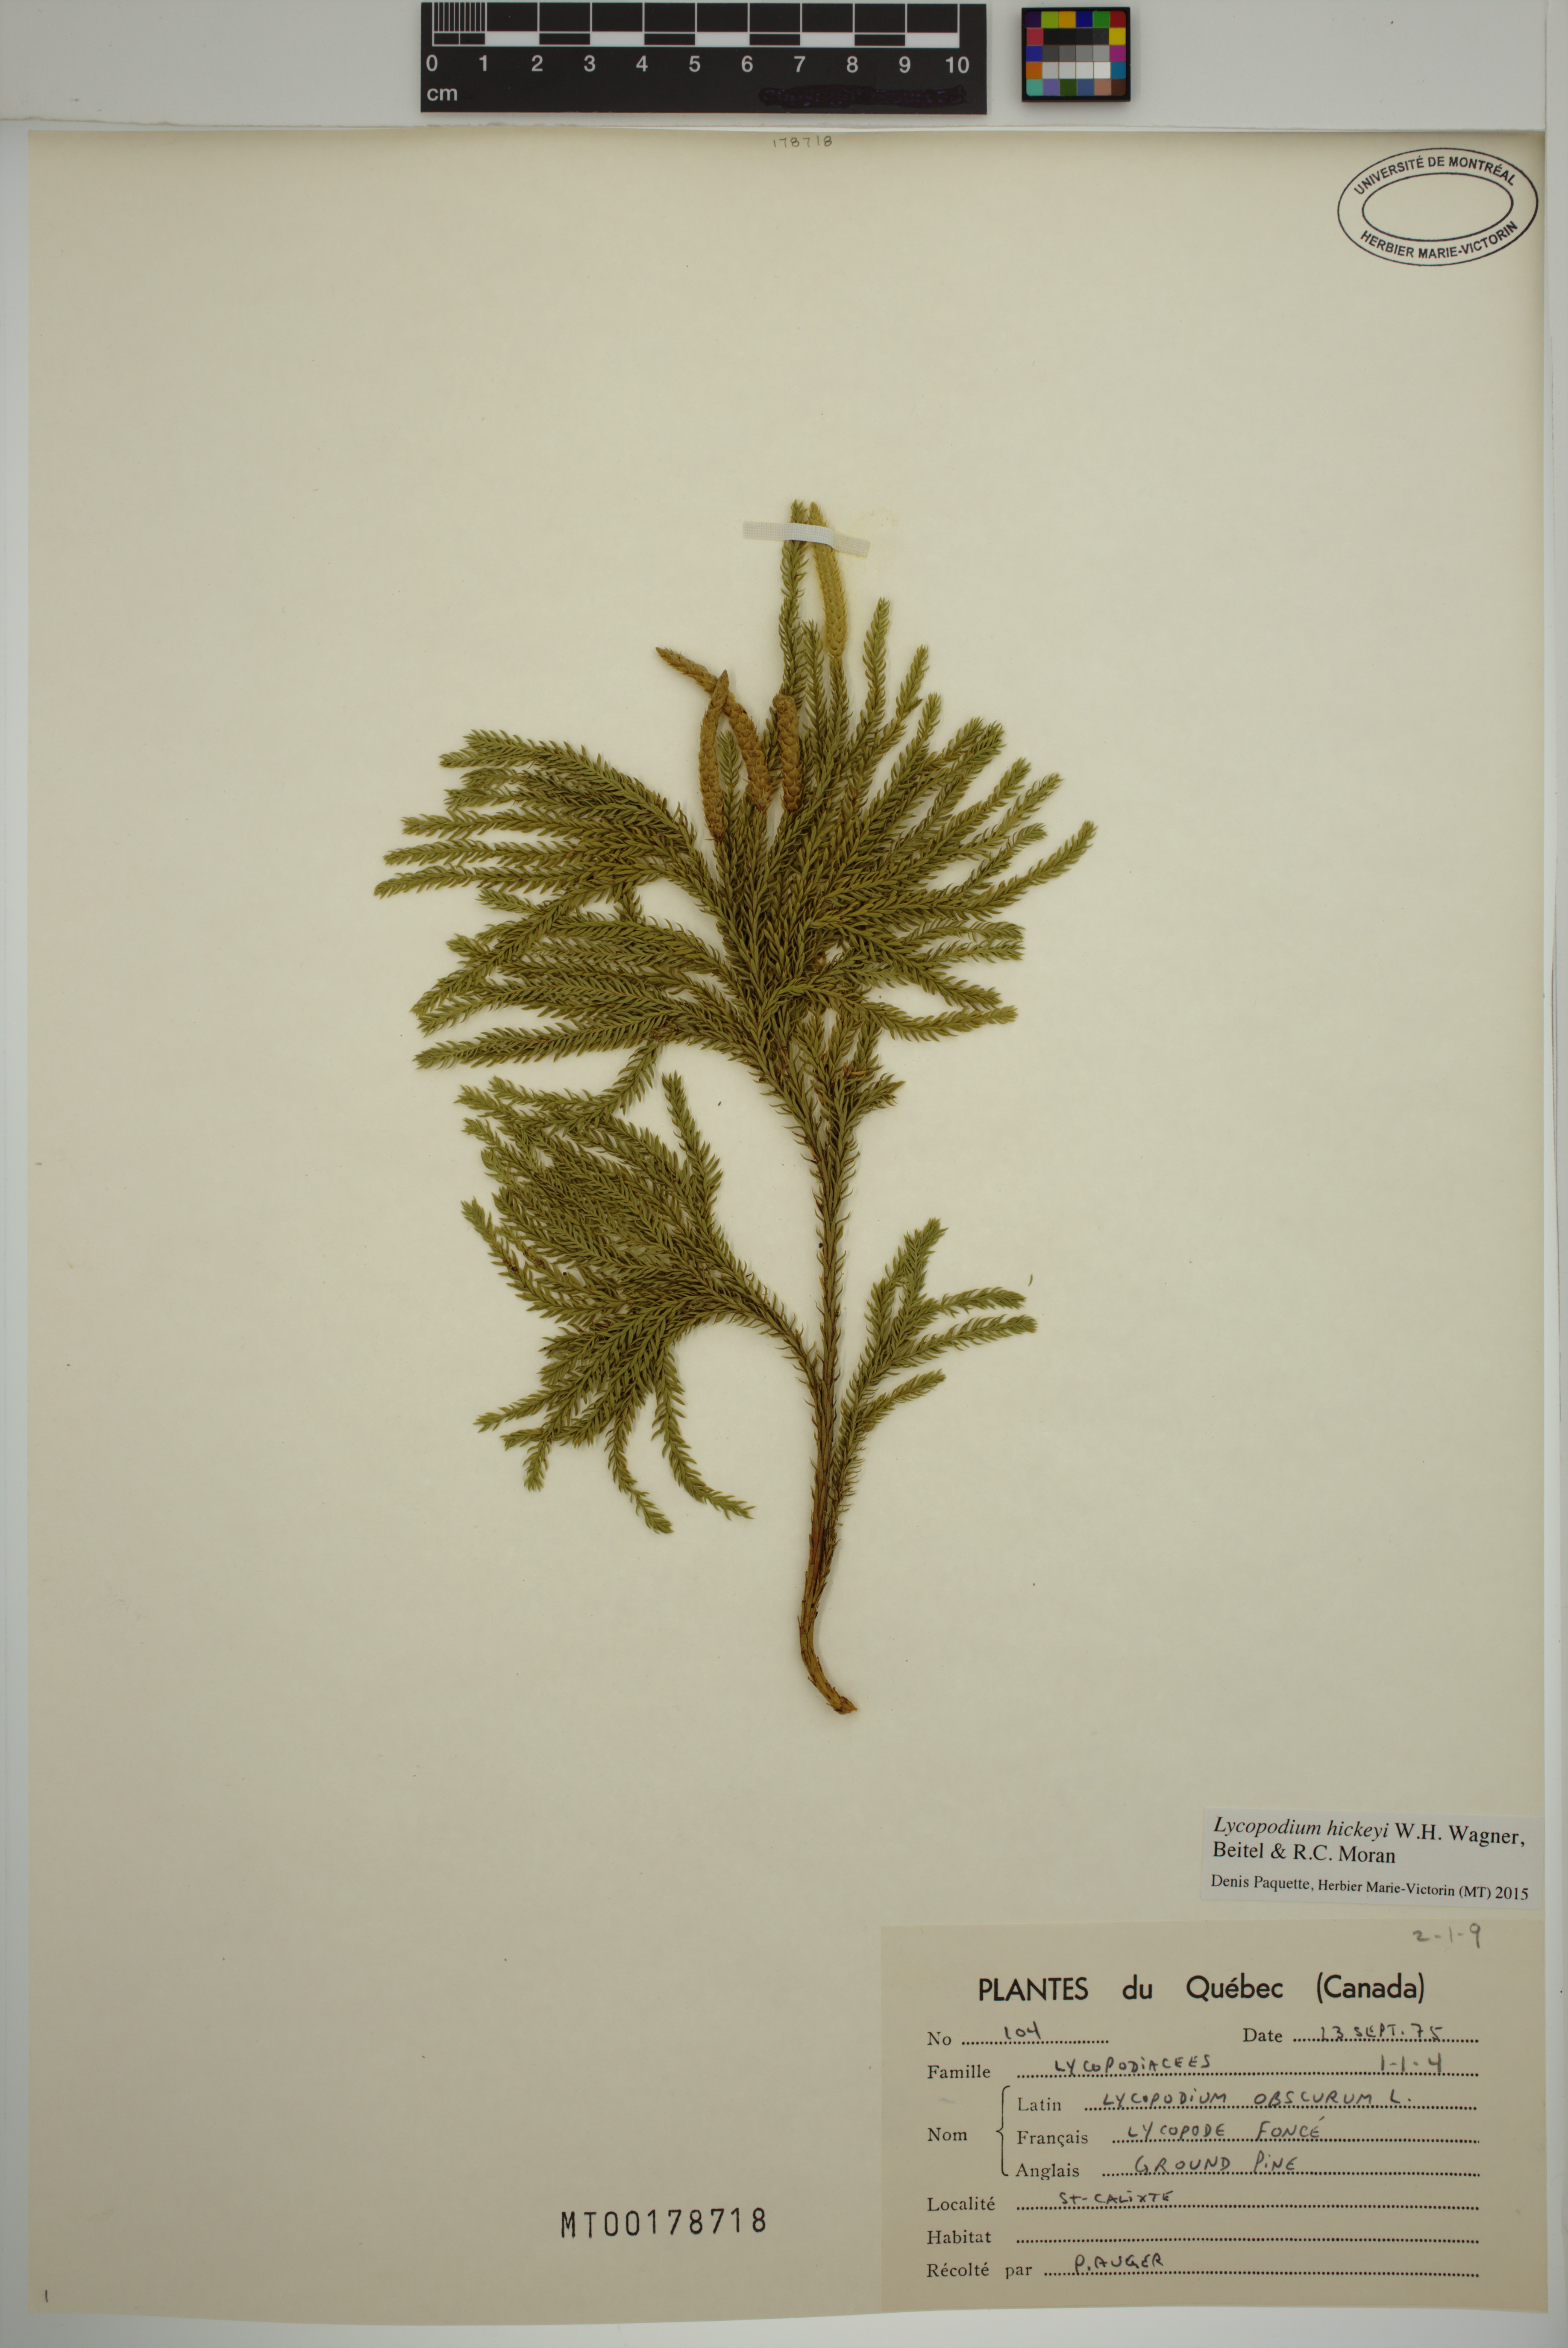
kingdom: Plantae
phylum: Tracheophyta
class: Lycopodiopsida
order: Lycopodiales
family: Lycopodiaceae
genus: Dendrolycopodium
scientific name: Dendrolycopodium hickeyi
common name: Hickey's clubmoss
